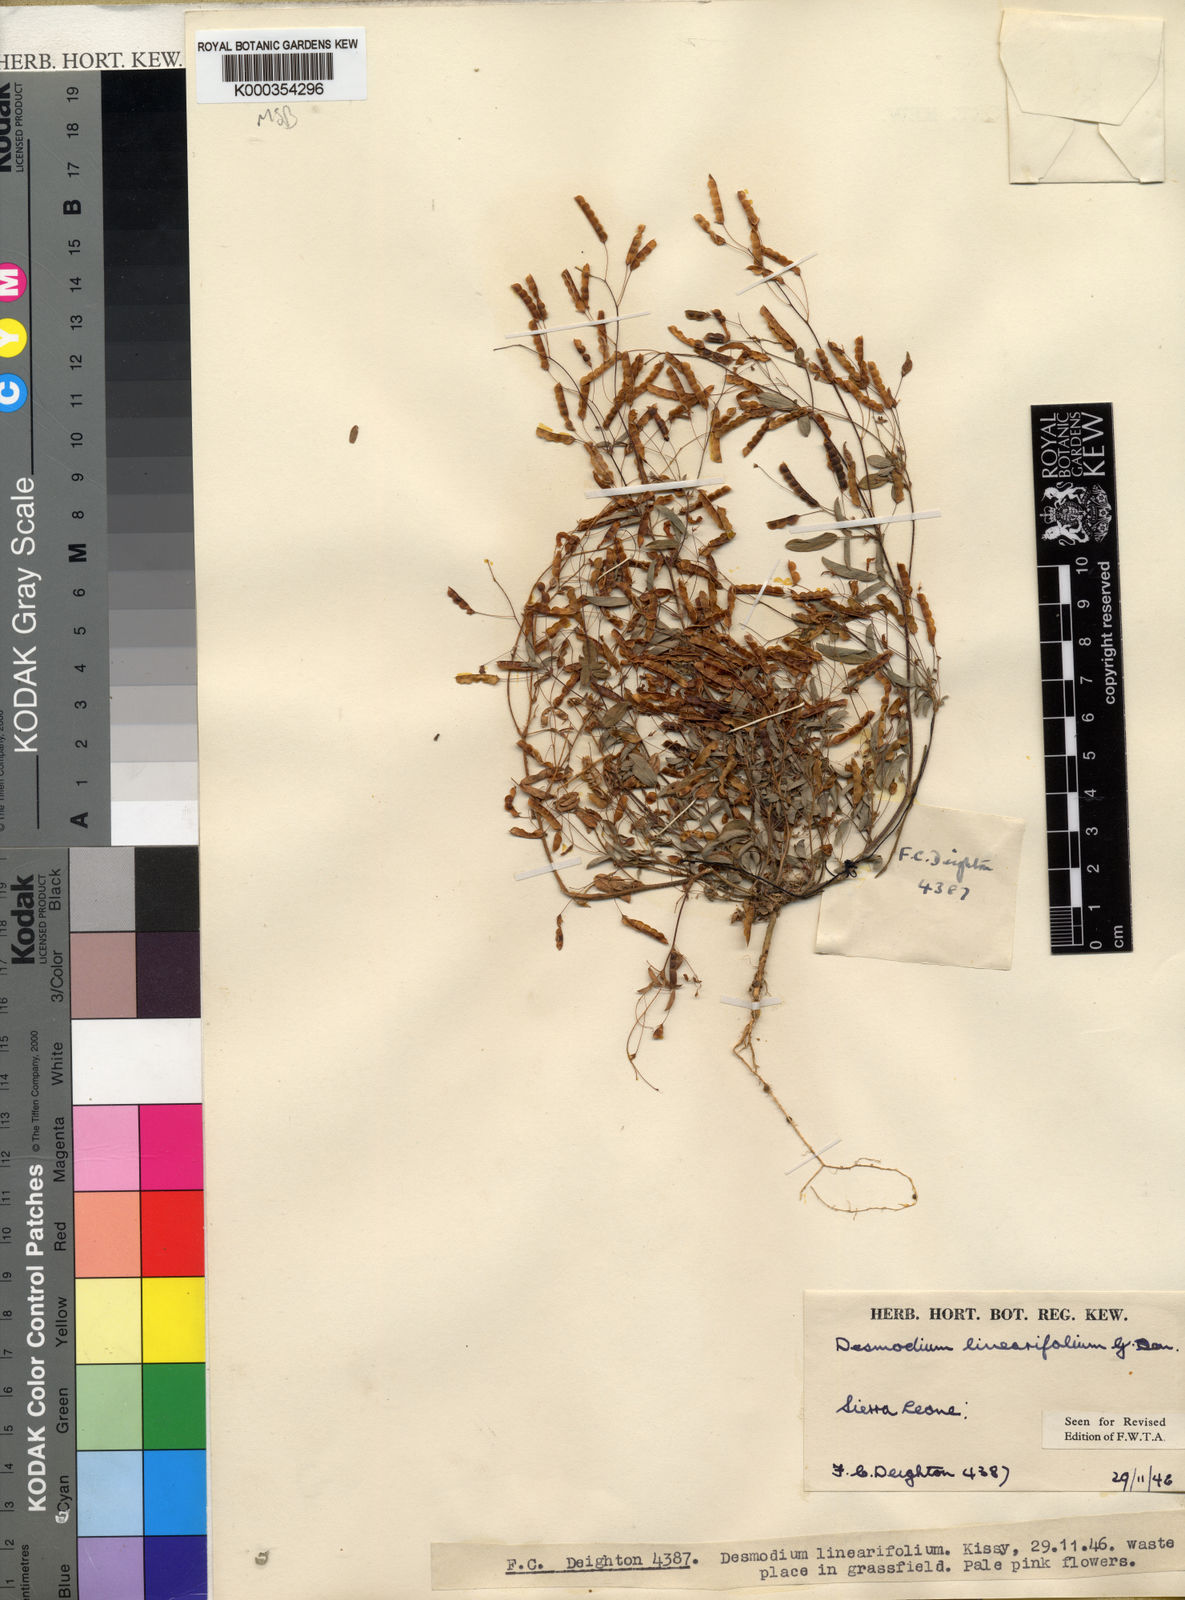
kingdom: Plantae
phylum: Tracheophyta
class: Magnoliopsida
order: Fabales
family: Fabaceae
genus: Desmodium
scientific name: Desmodium linearifolium
